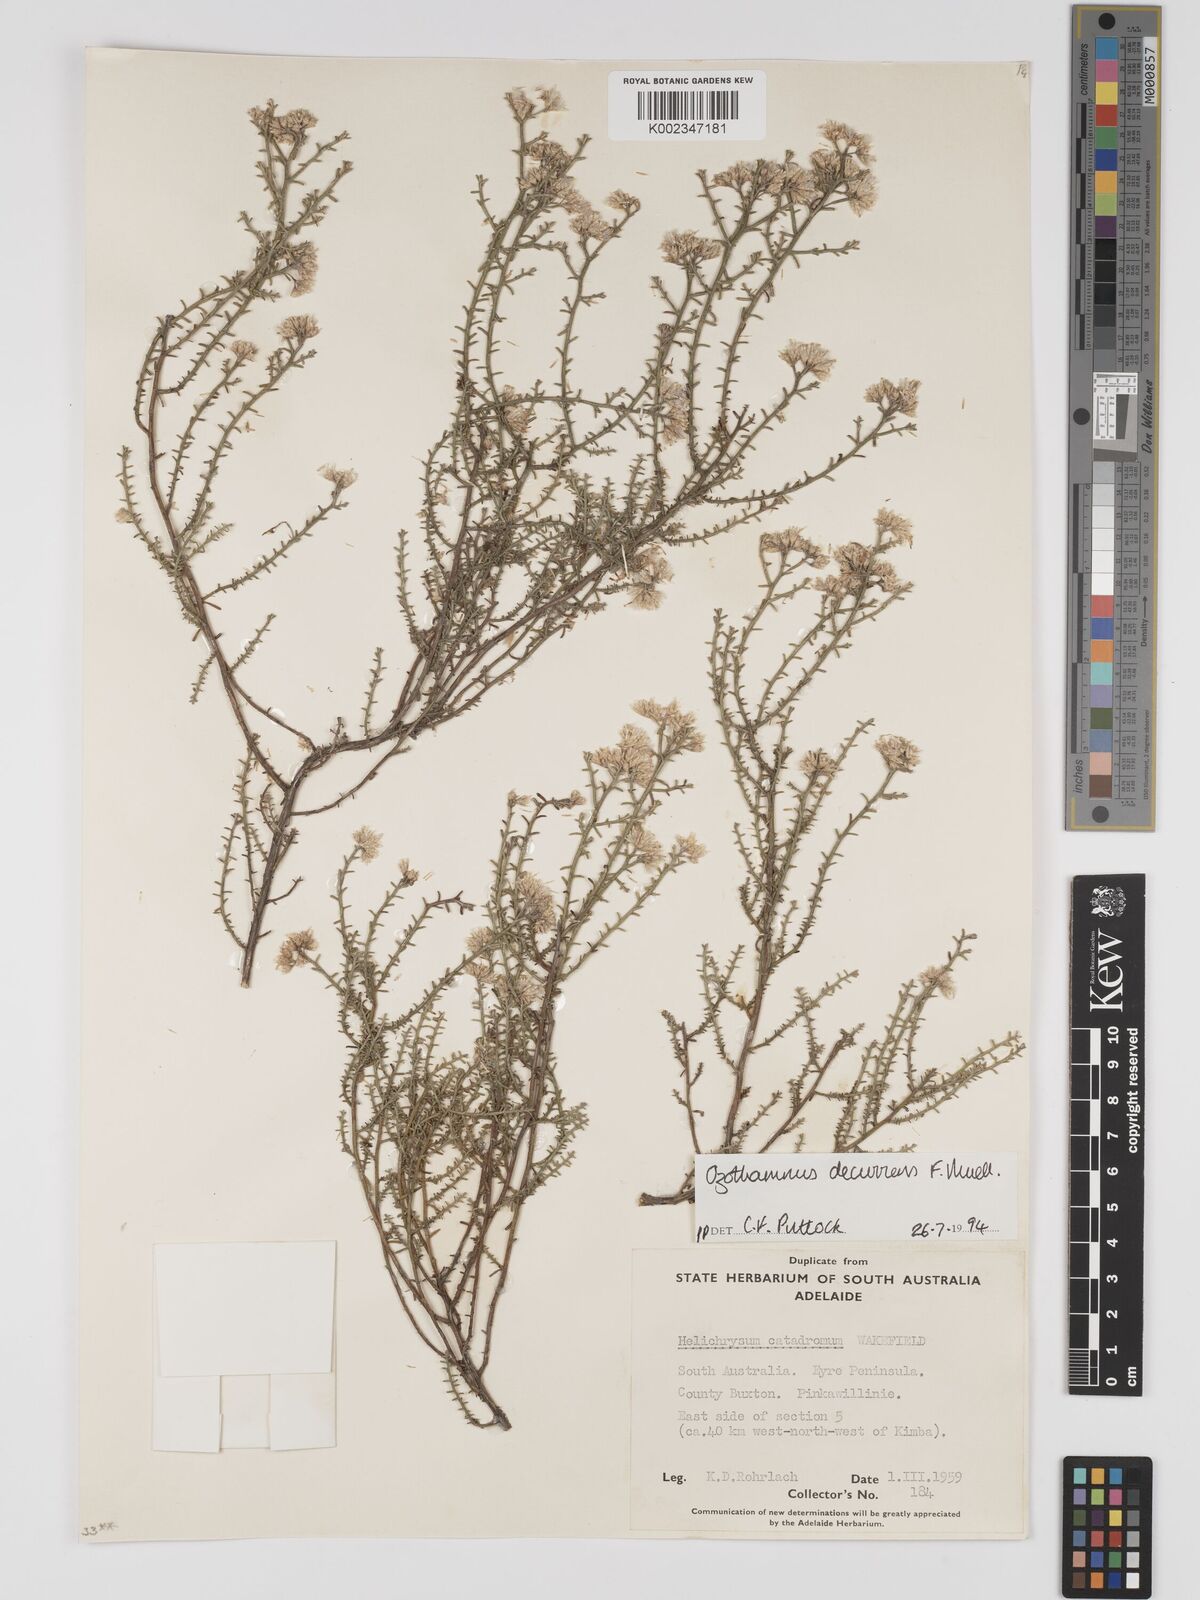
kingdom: Plantae
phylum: Tracheophyta
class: Magnoliopsida
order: Asterales
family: Asteraceae
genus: Ozothamnus
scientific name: Ozothamnus catadromus
